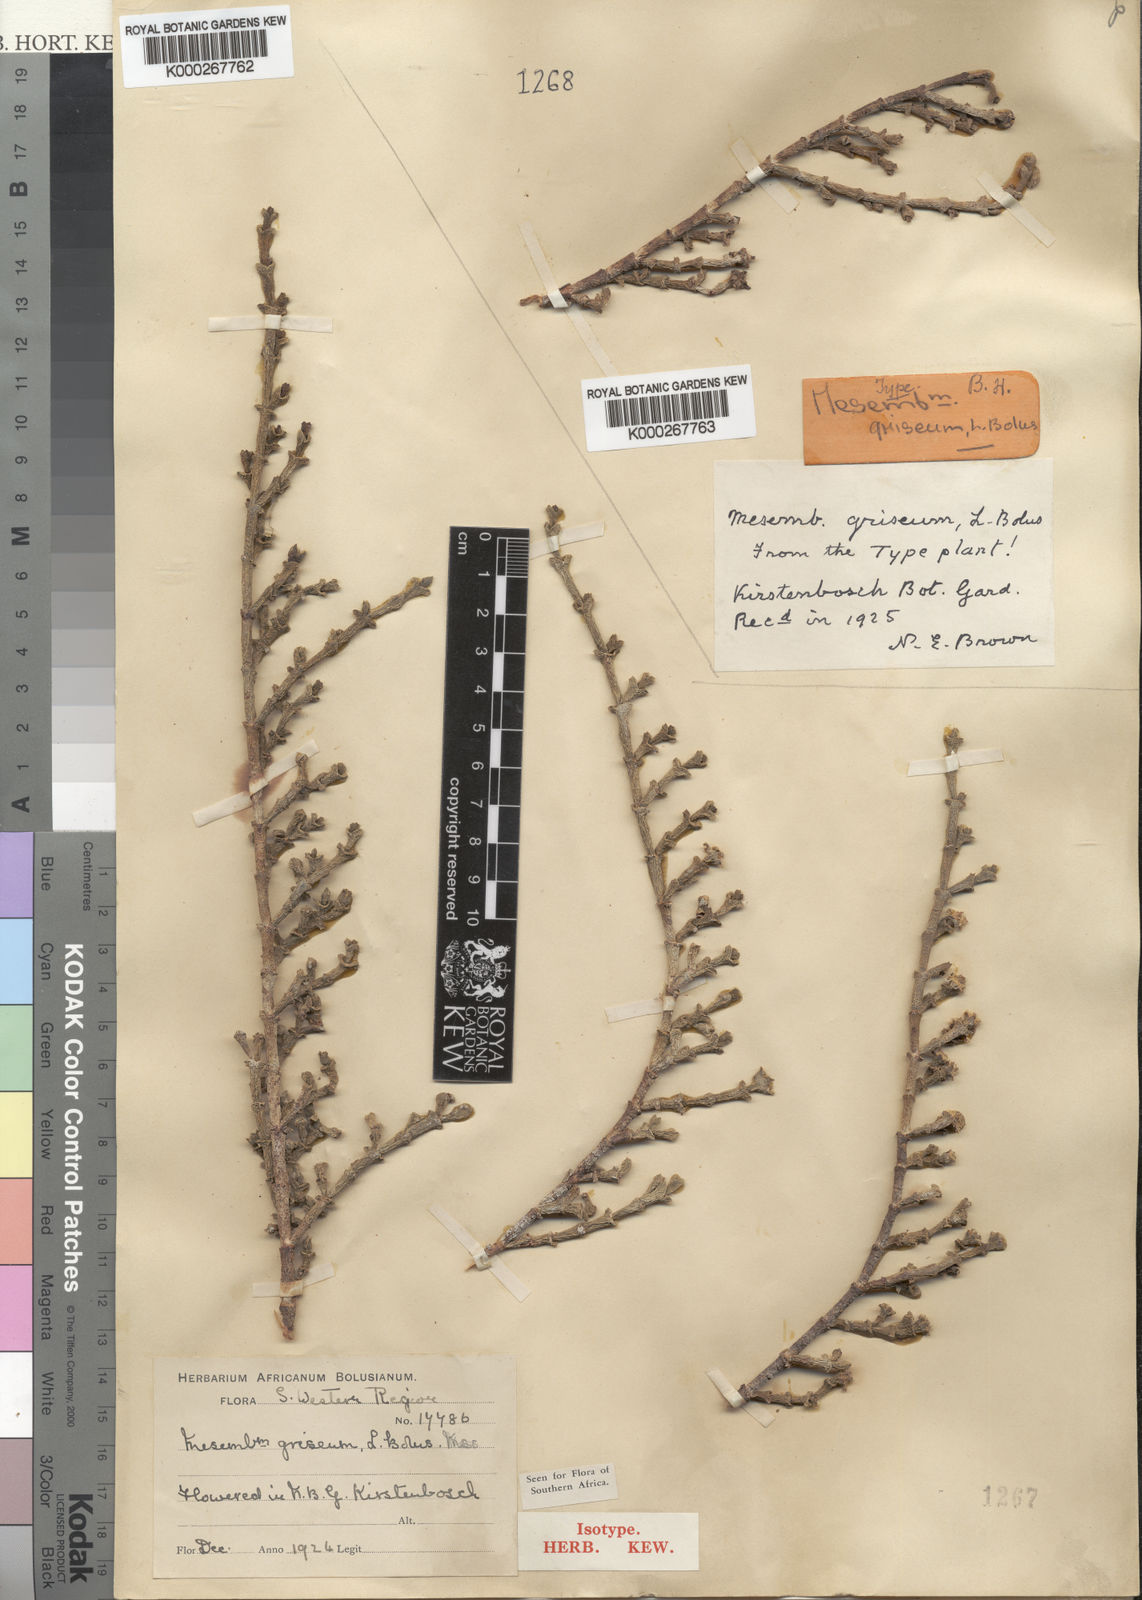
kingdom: Plantae
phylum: Tracheophyta
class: Magnoliopsida
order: Caryophyllales
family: Aizoaceae
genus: Ruschia
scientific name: Ruschia grisea
